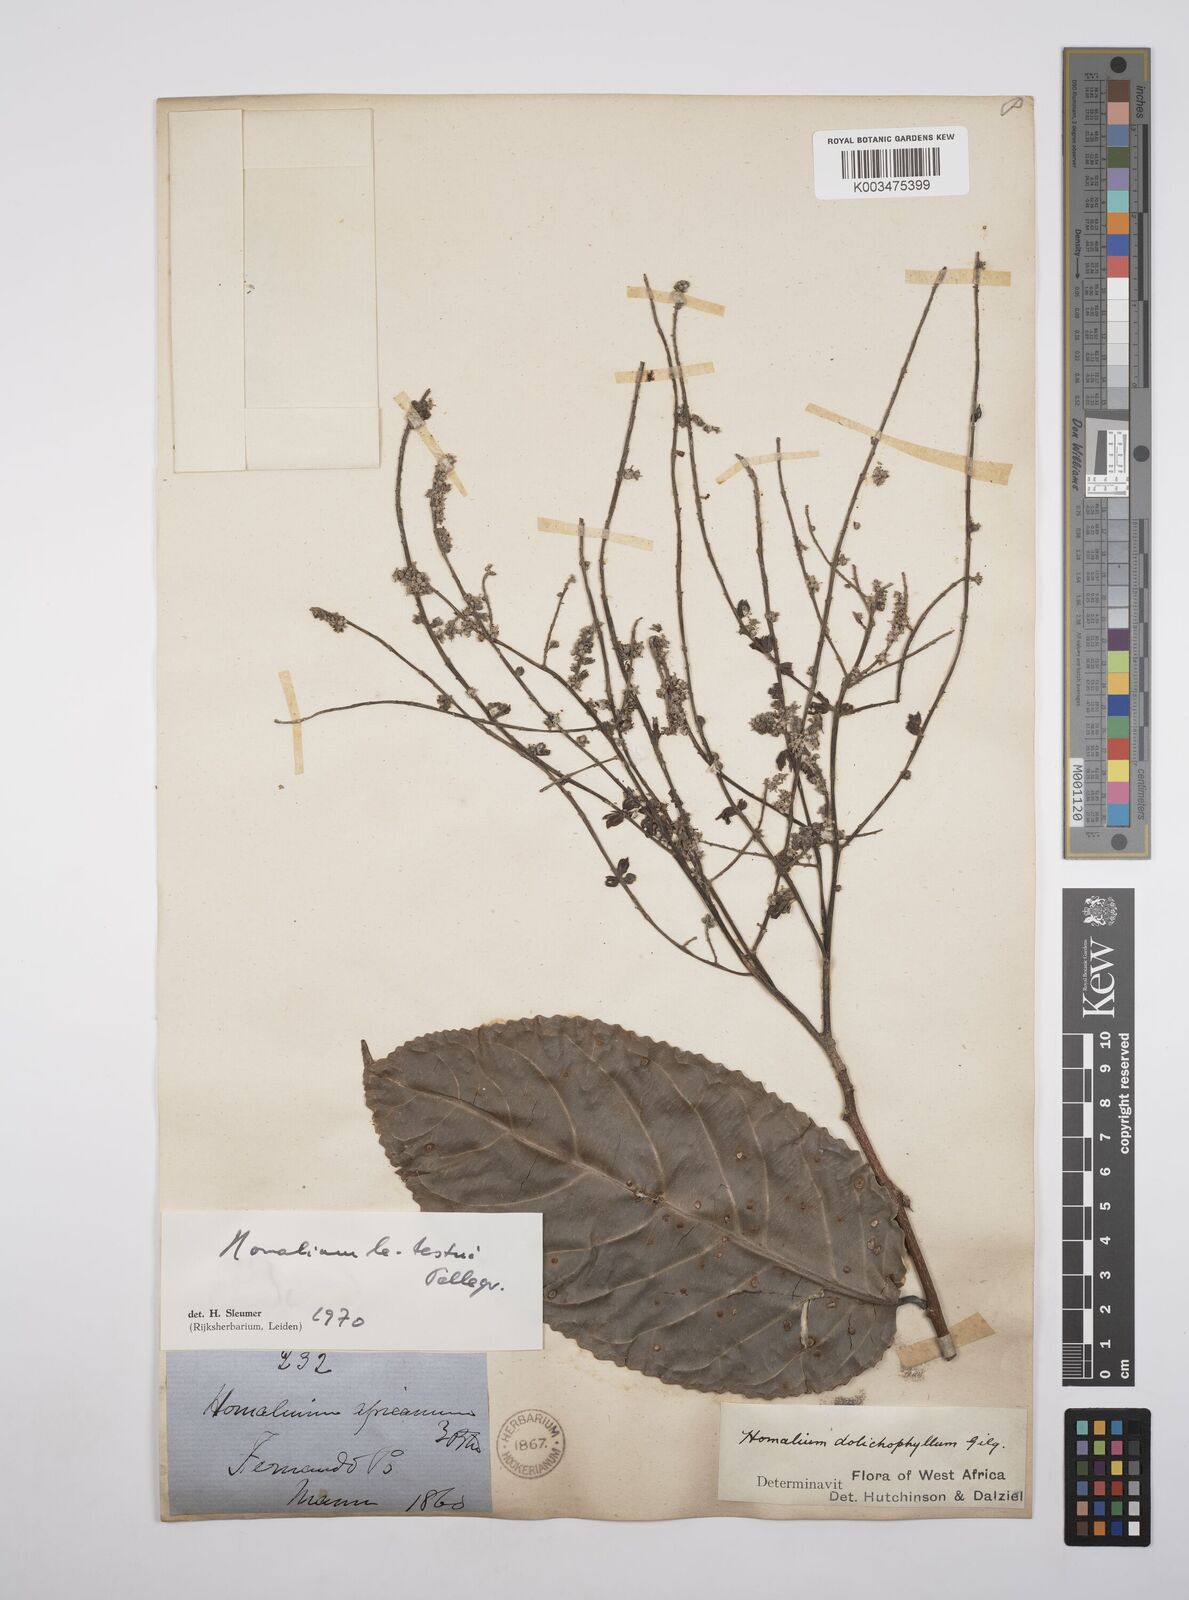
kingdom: Plantae
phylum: Tracheophyta
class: Magnoliopsida
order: Malpighiales
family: Salicaceae
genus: Homalium
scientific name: Homalium letestui
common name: African homalium
